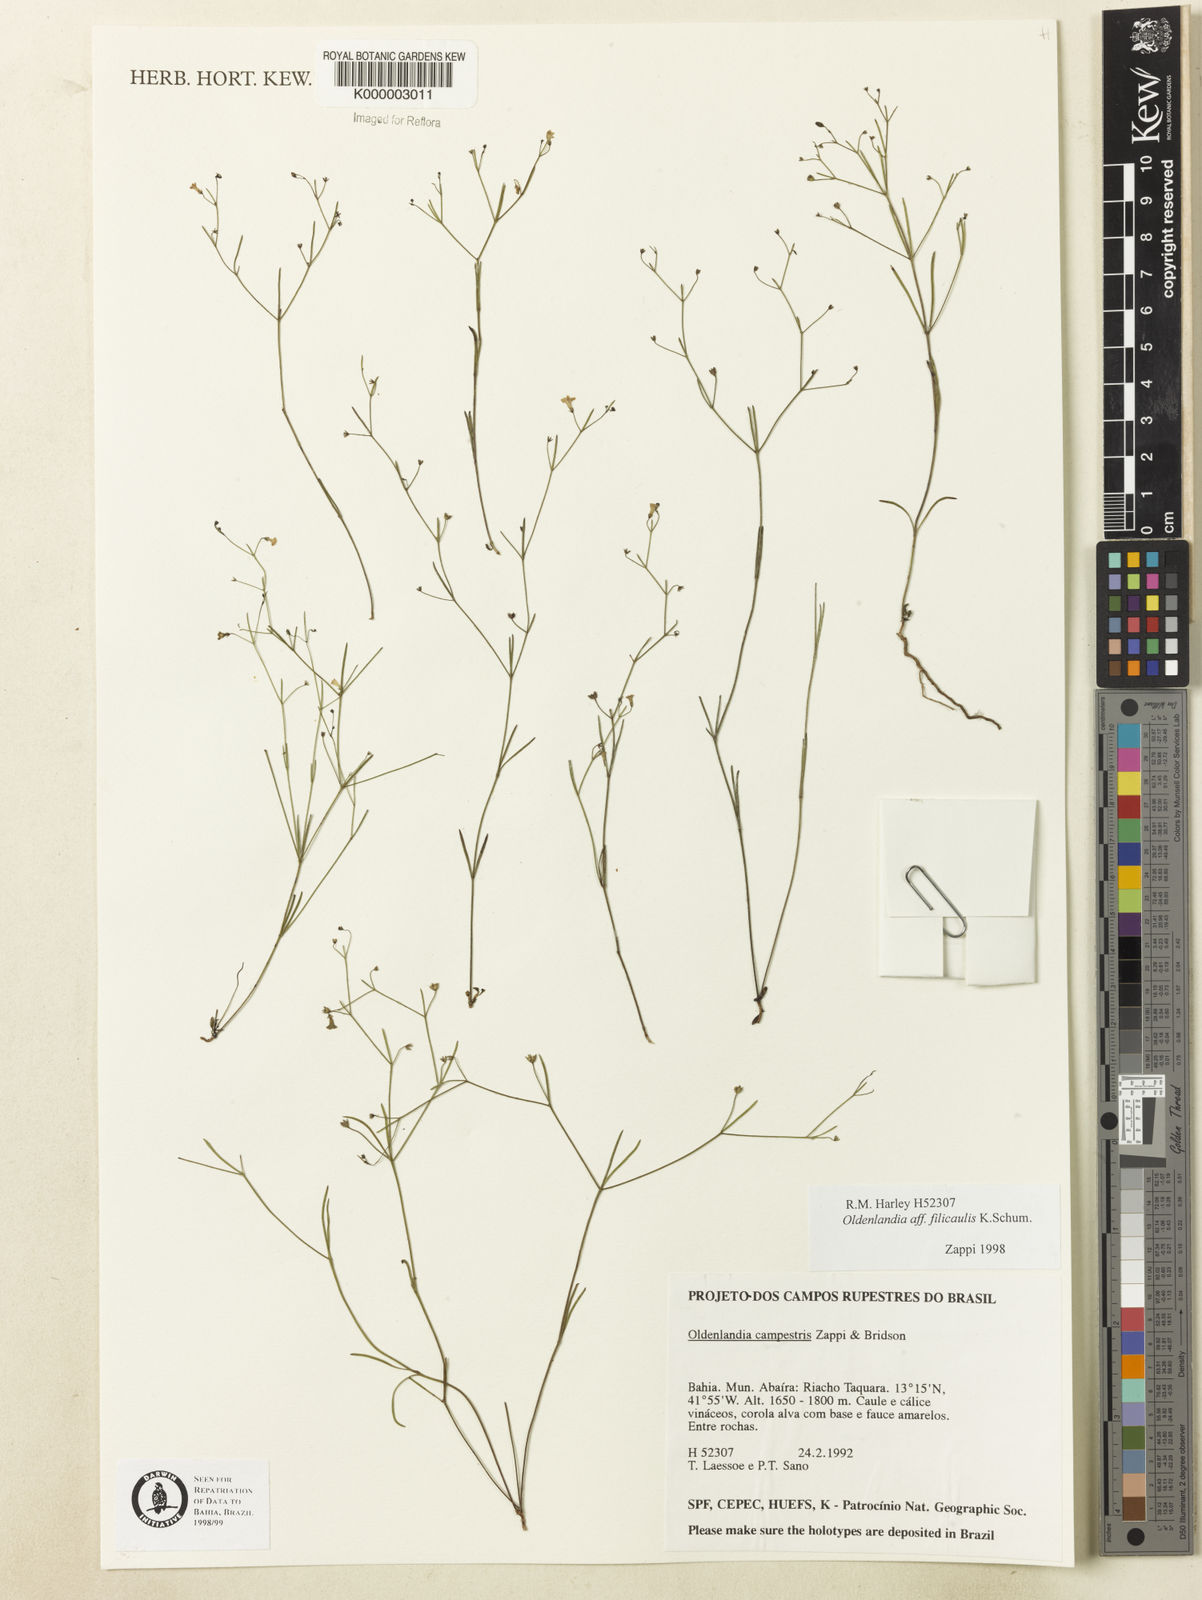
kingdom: Plantae
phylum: Tracheophyta
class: Magnoliopsida
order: Gentianales
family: Rubiaceae
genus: Oldenlandia
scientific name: Oldenlandia filicaulis
